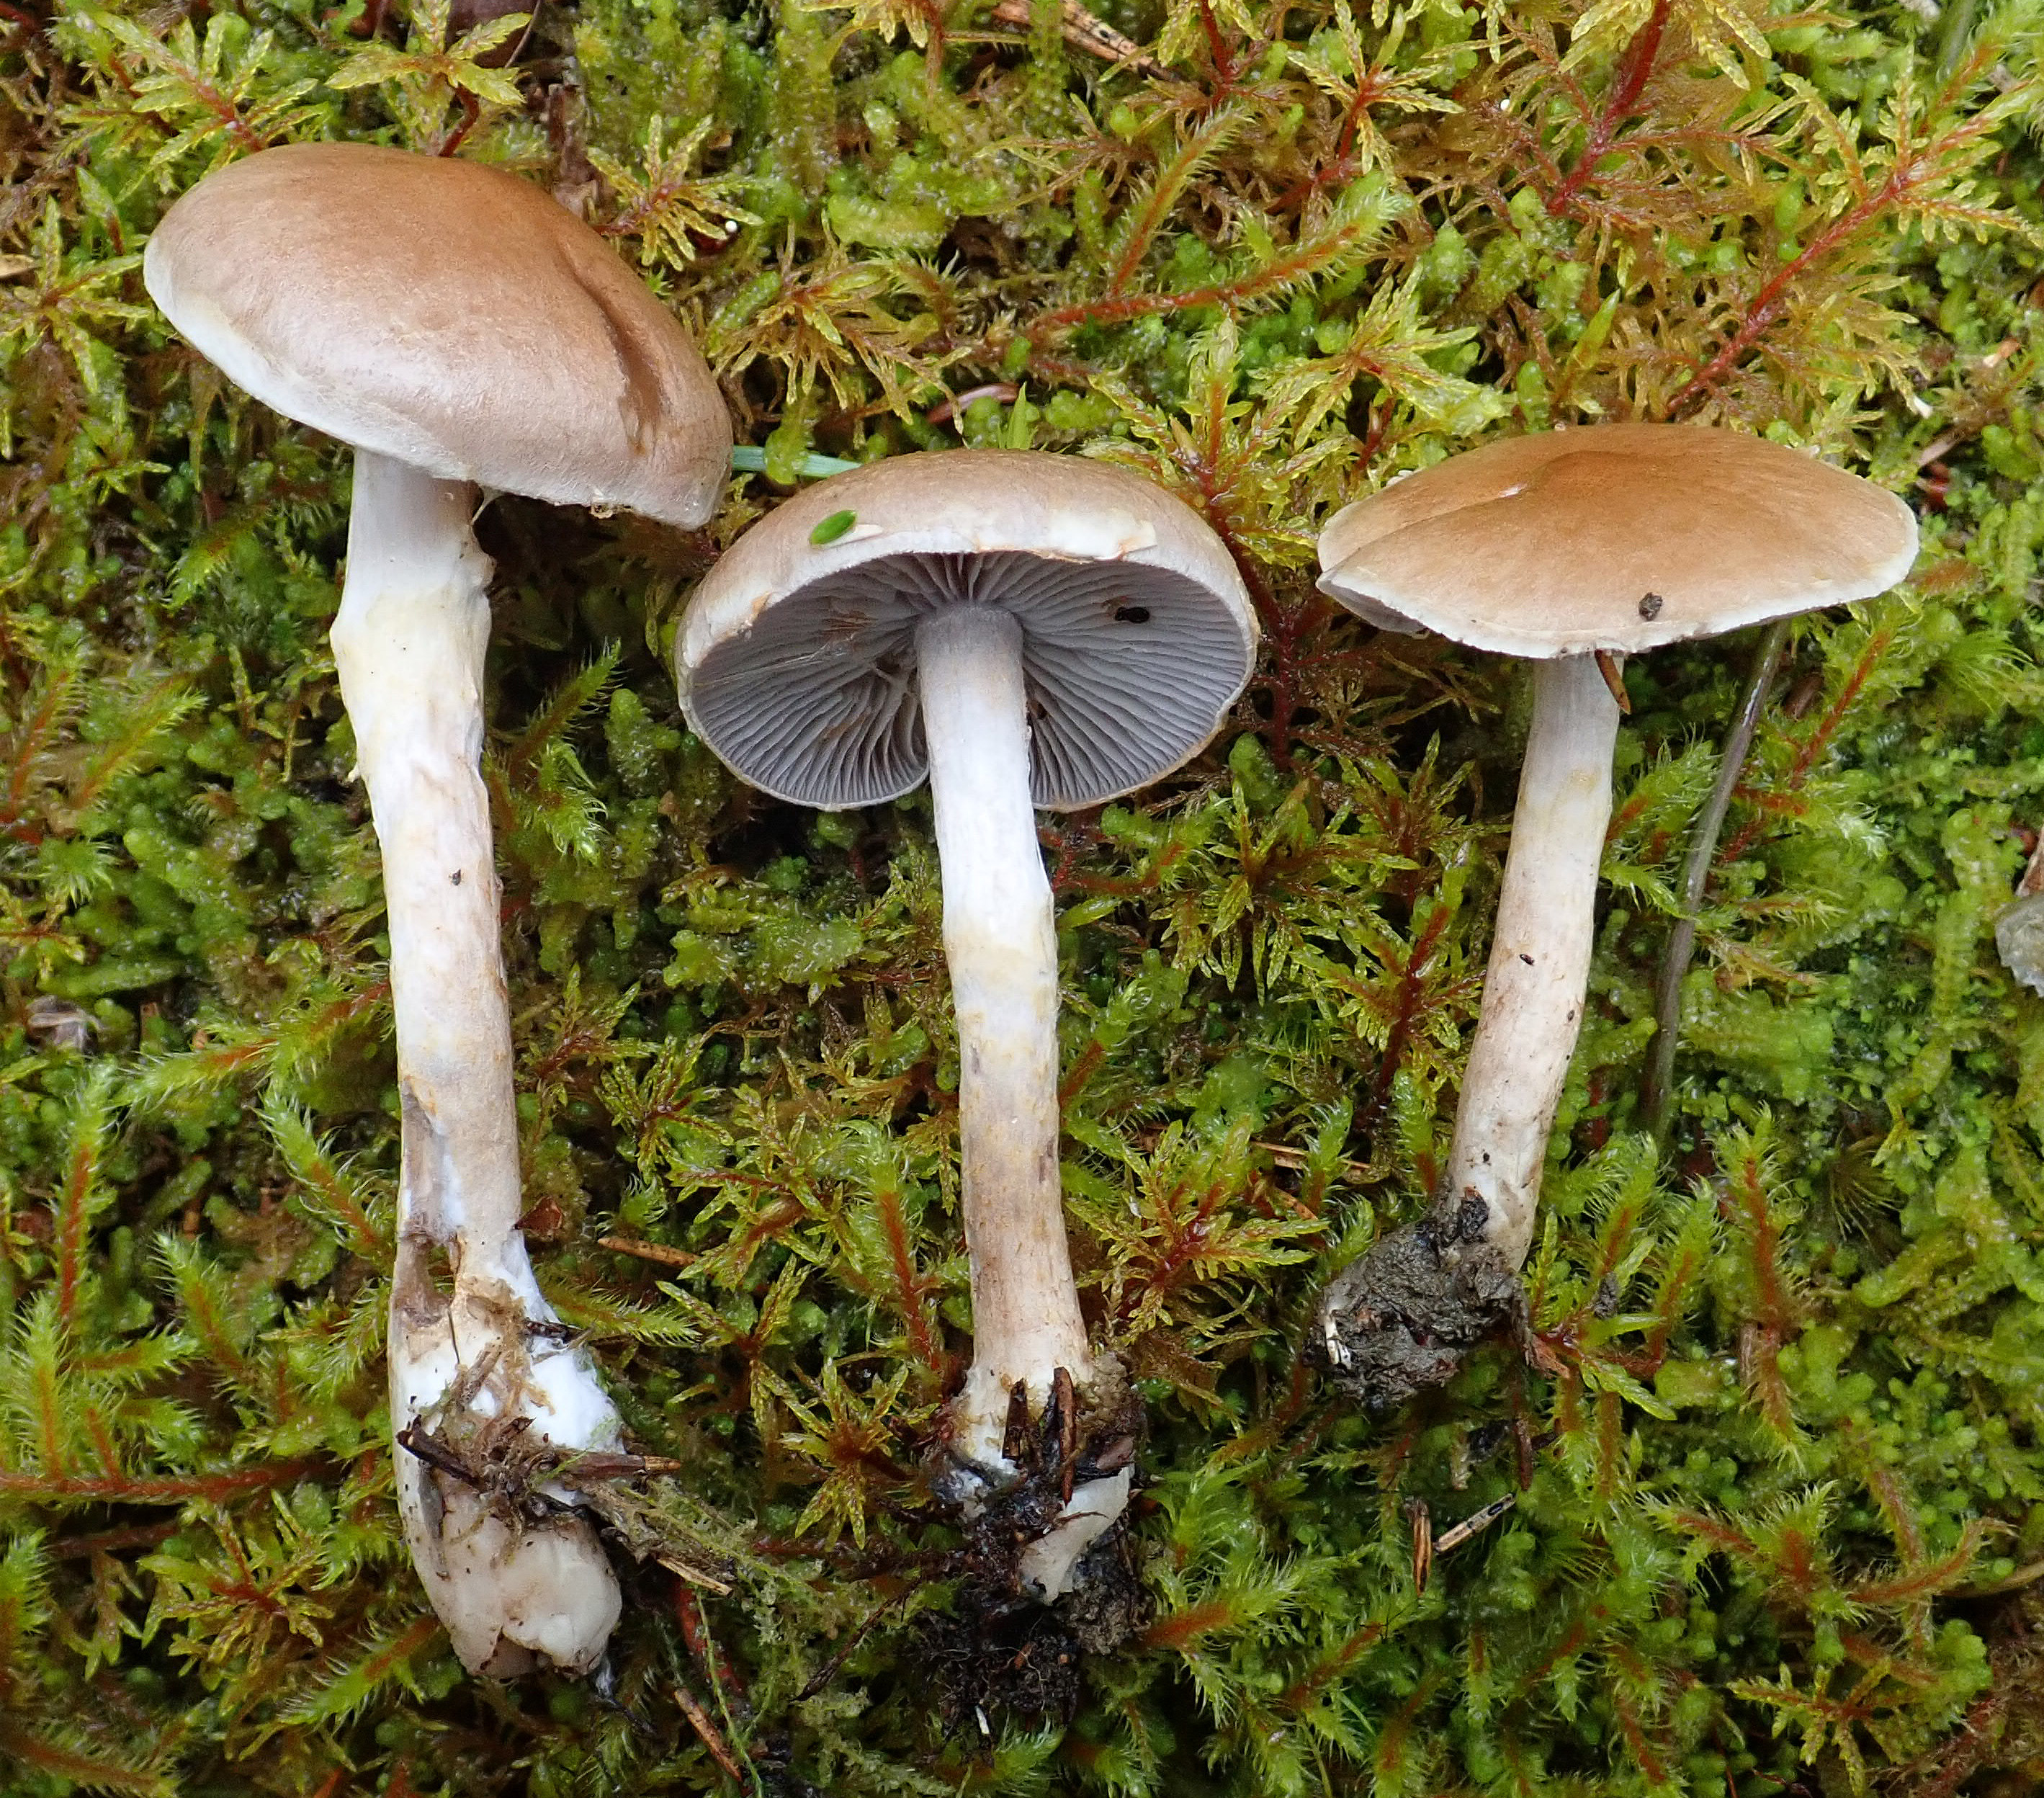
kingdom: Fungi
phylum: Basidiomycota
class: Agaricomycetes
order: Agaricales
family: Cortinariaceae
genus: Cortinarius
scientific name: Cortinarius anomalus
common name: Variable webcap
